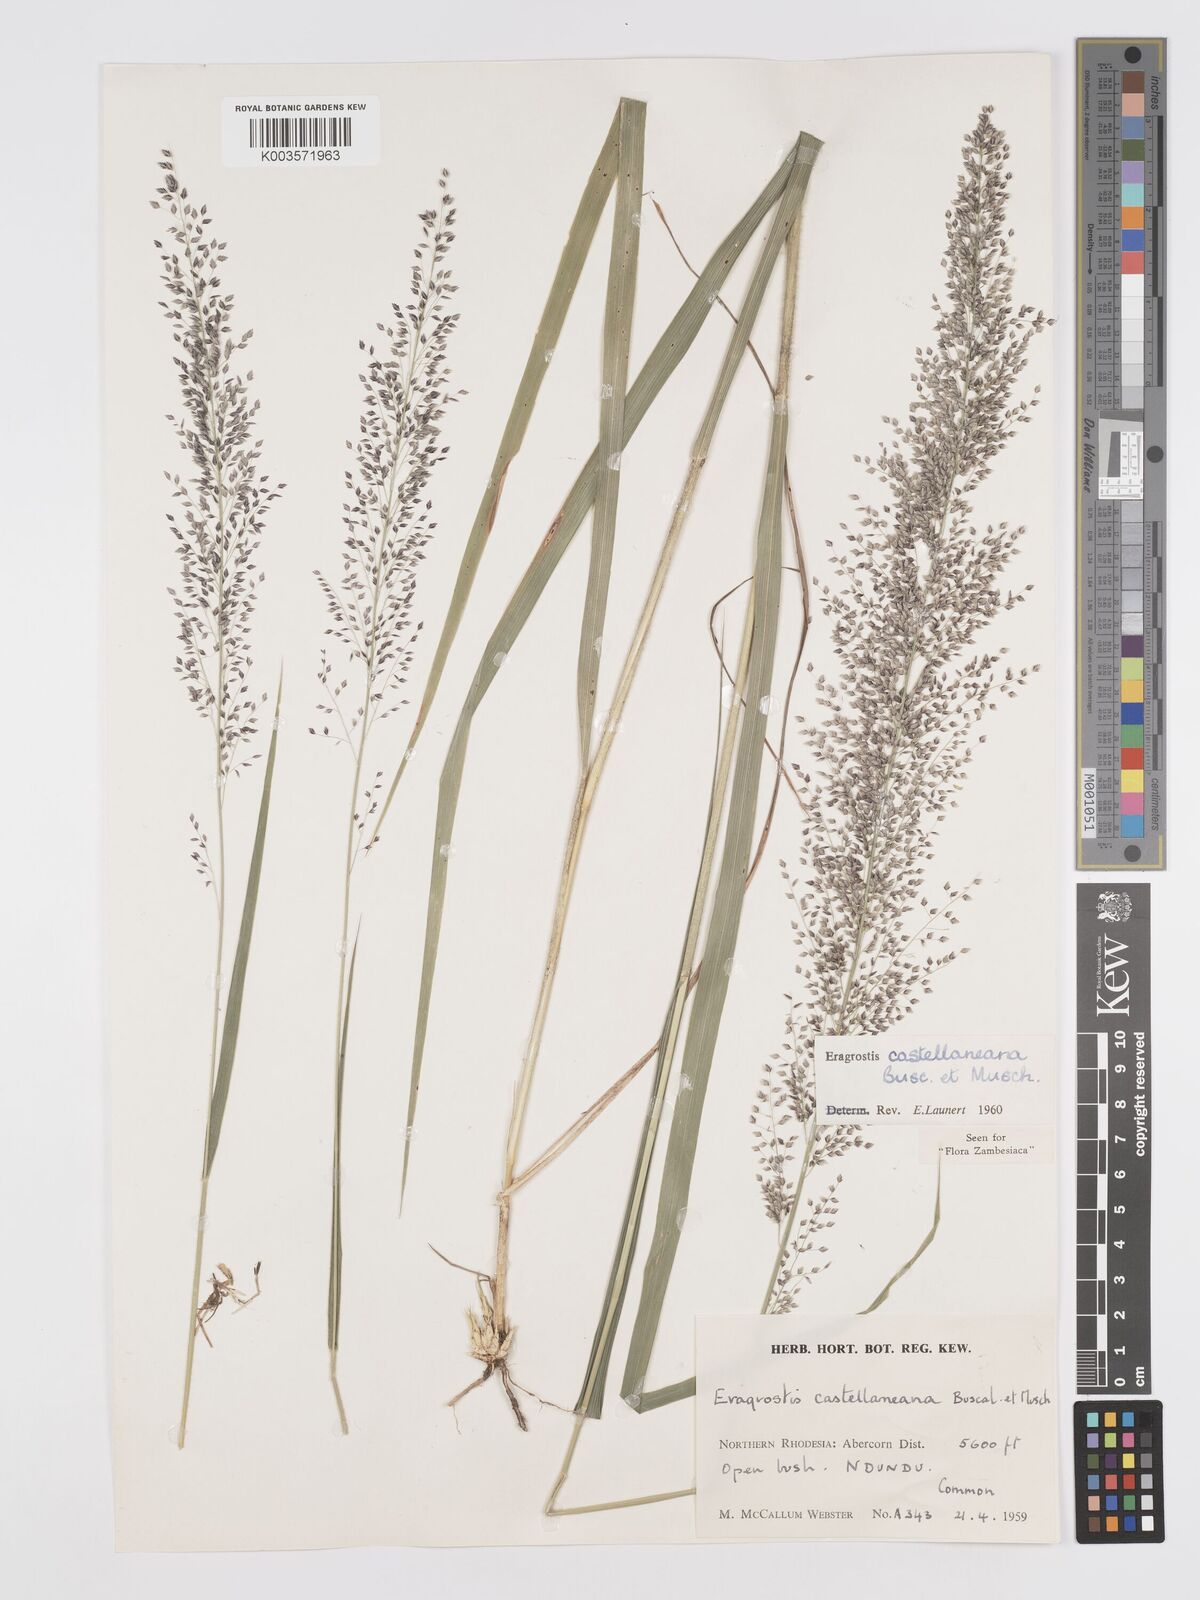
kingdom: Plantae
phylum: Tracheophyta
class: Liliopsida
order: Poales
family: Poaceae
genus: Eragrostis
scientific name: Eragrostis castellaneana
